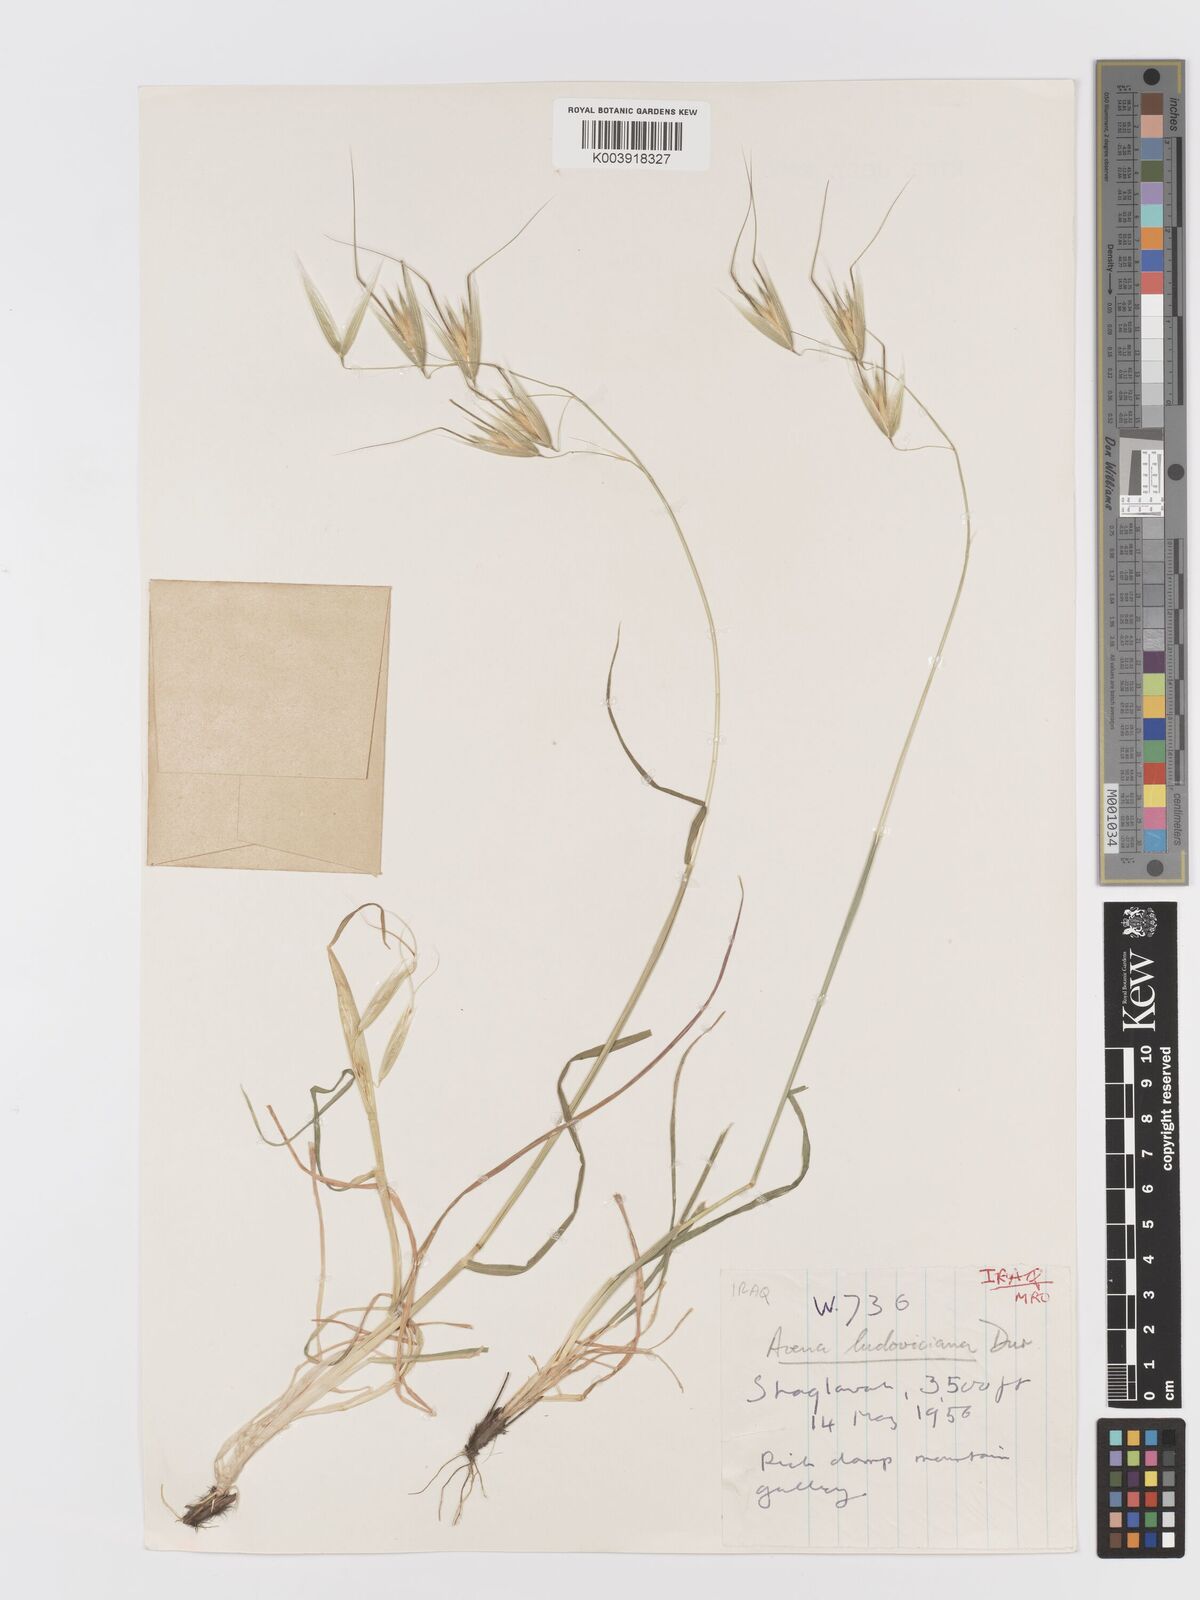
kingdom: Plantae
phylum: Tracheophyta
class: Liliopsida
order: Poales
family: Poaceae
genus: Avena
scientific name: Avena sterilis
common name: Animated oat
